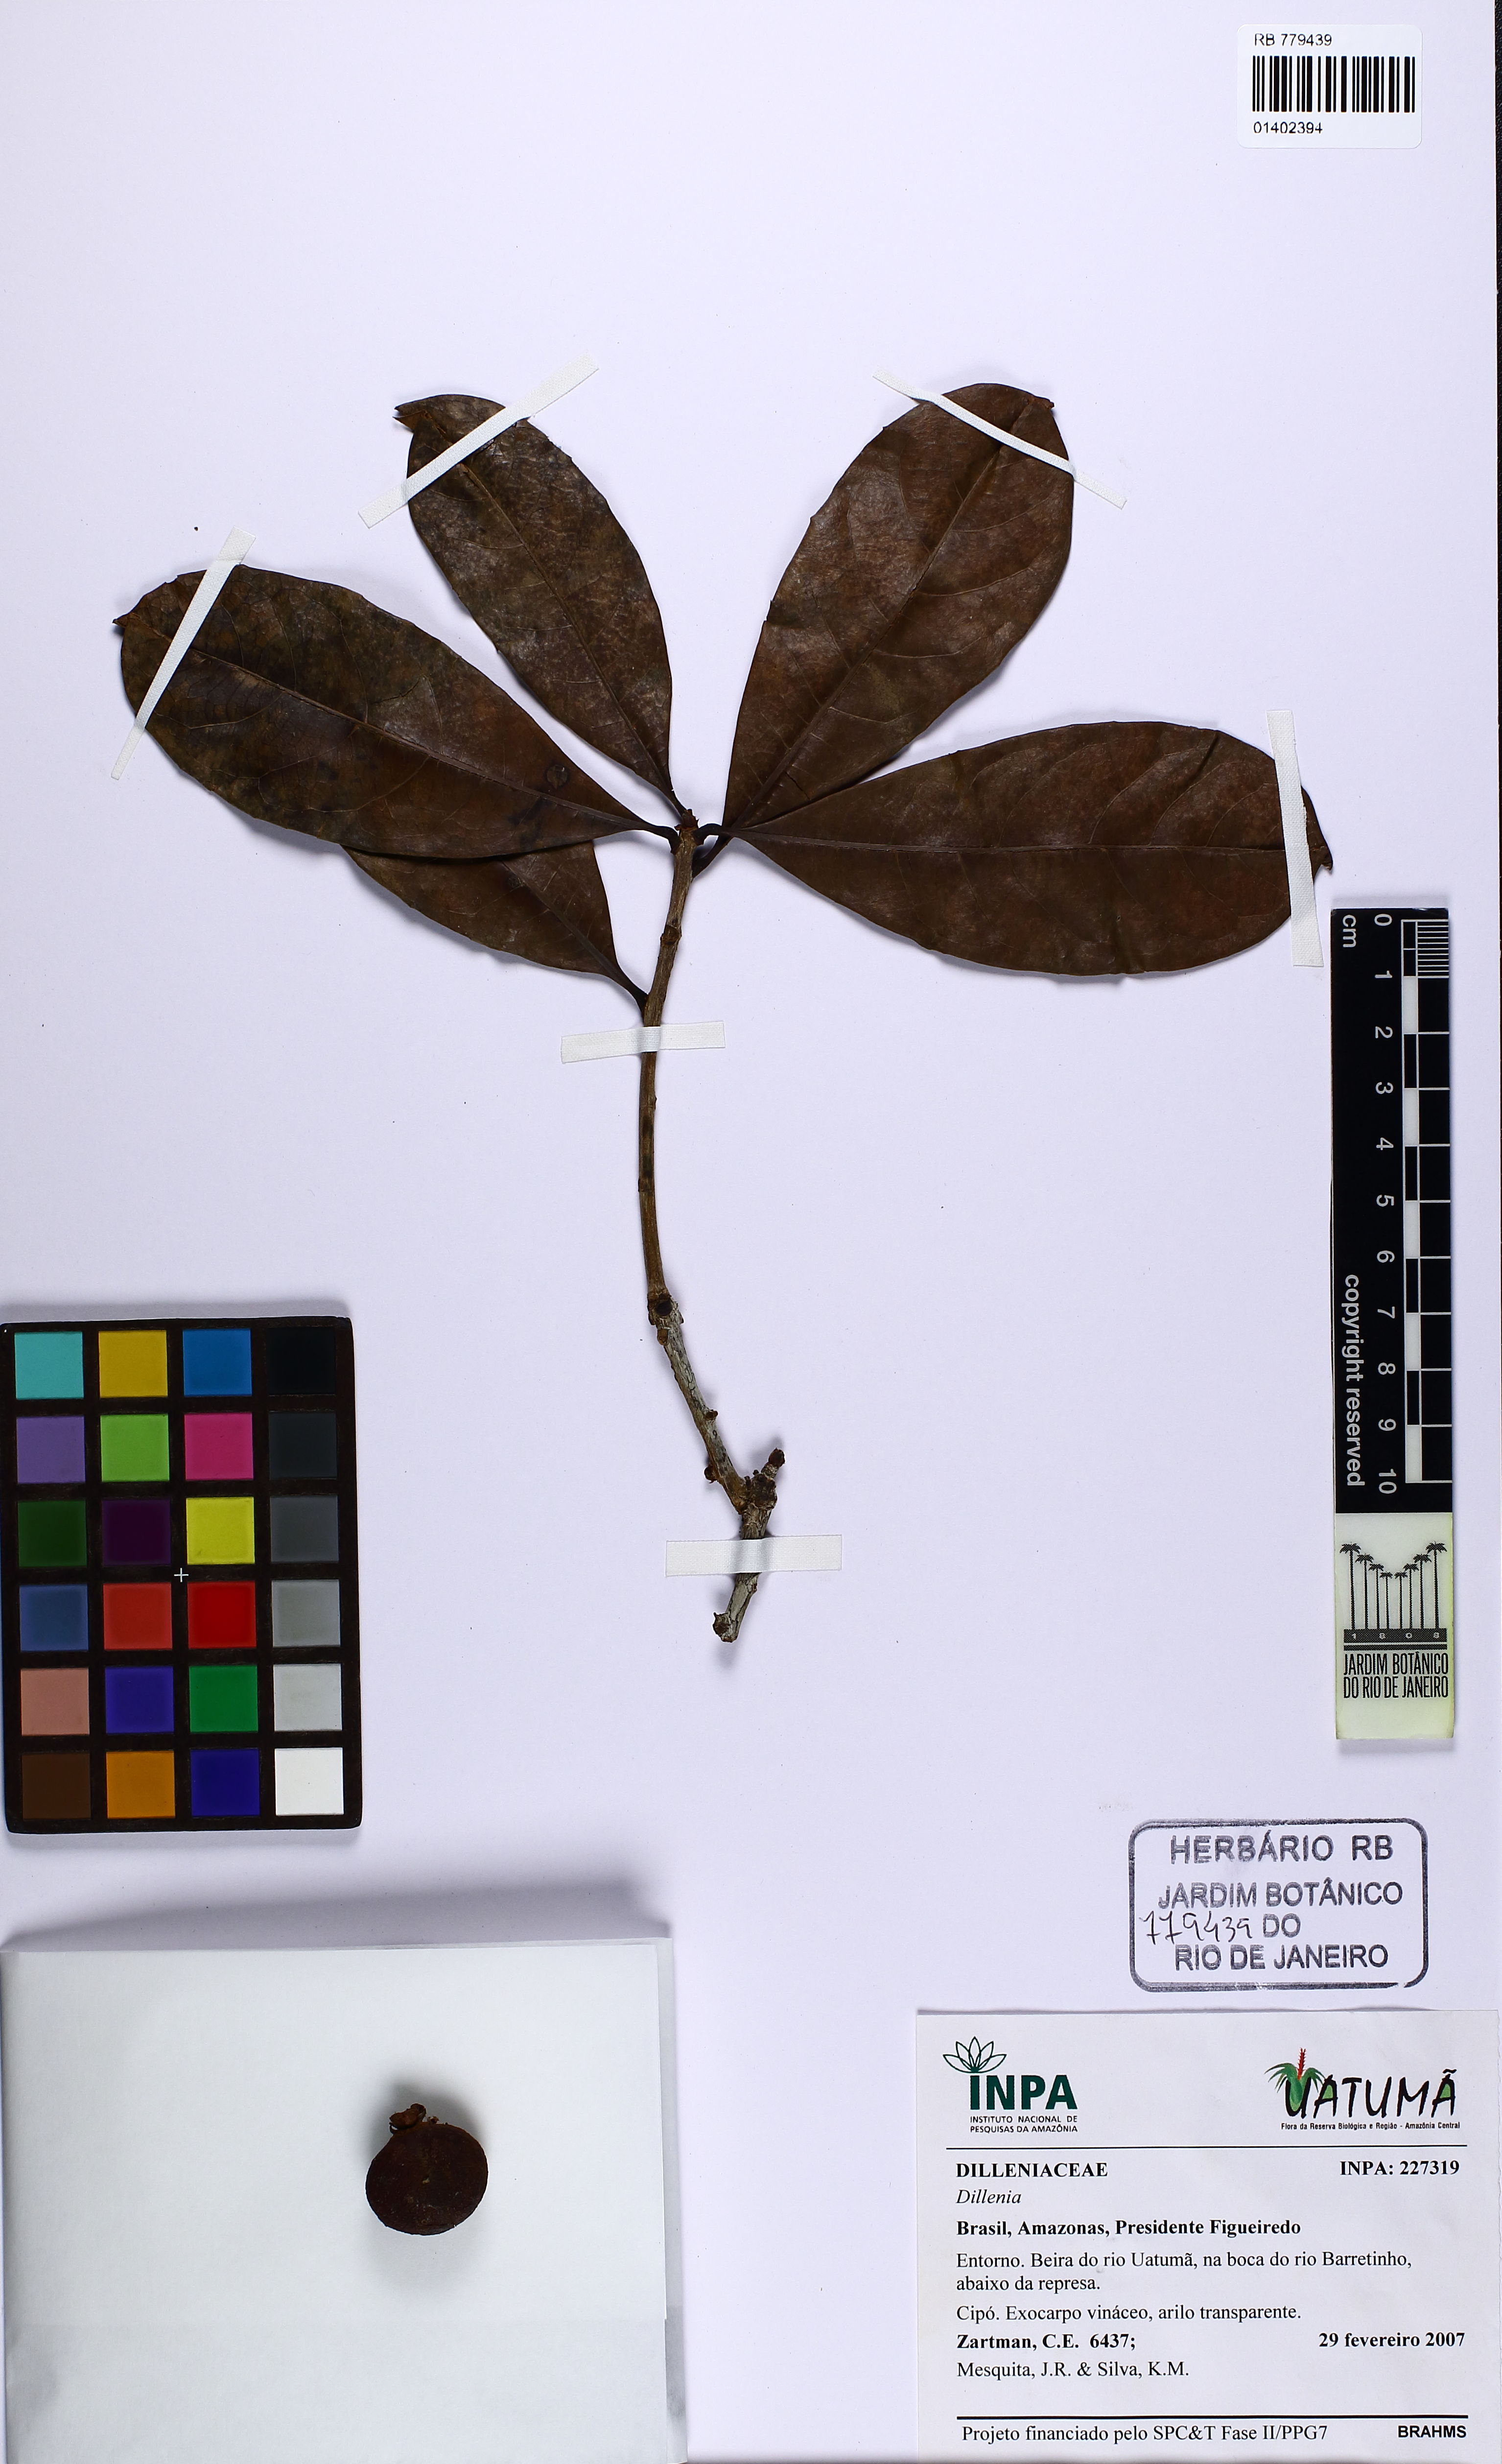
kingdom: Plantae
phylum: Tracheophyta
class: Magnoliopsida
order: Dilleniales
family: Dilleniaceae
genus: Dillenia
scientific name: Dillenia
